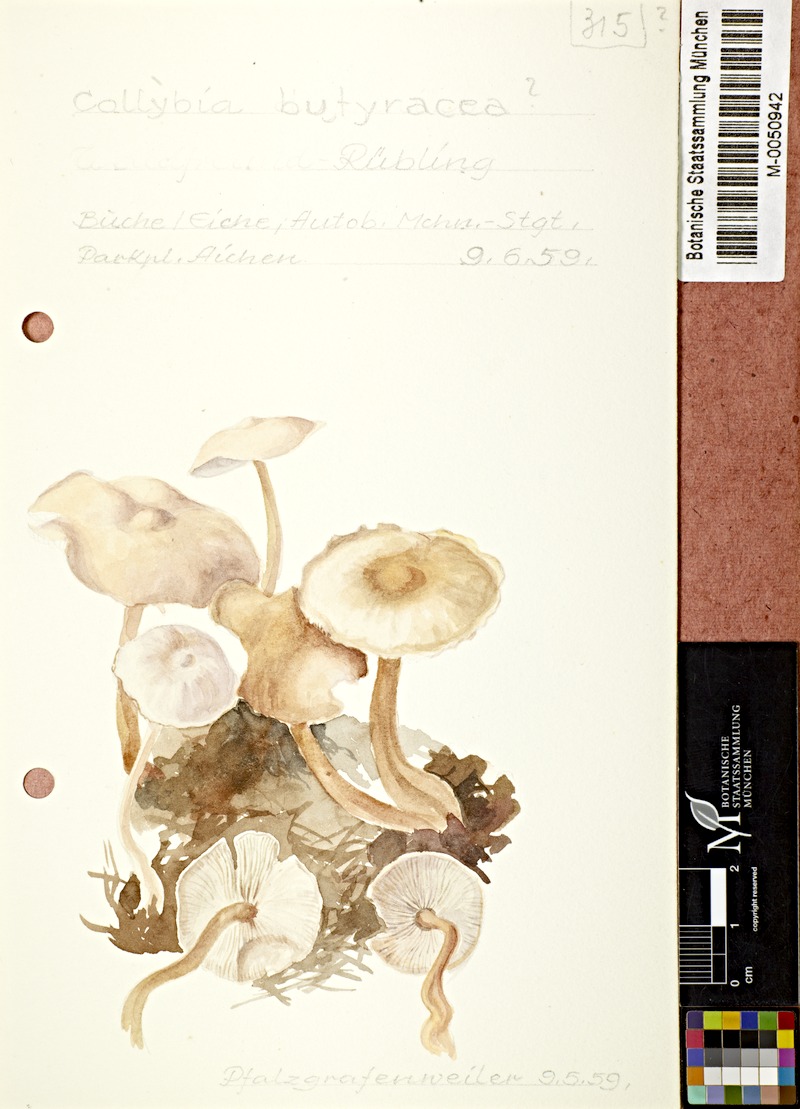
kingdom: Fungi
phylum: Basidiomycota
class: Agaricomycetes
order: Agaricales
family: Omphalotaceae
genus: Rhodocollybia
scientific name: Rhodocollybia butyracea
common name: Butter cap
